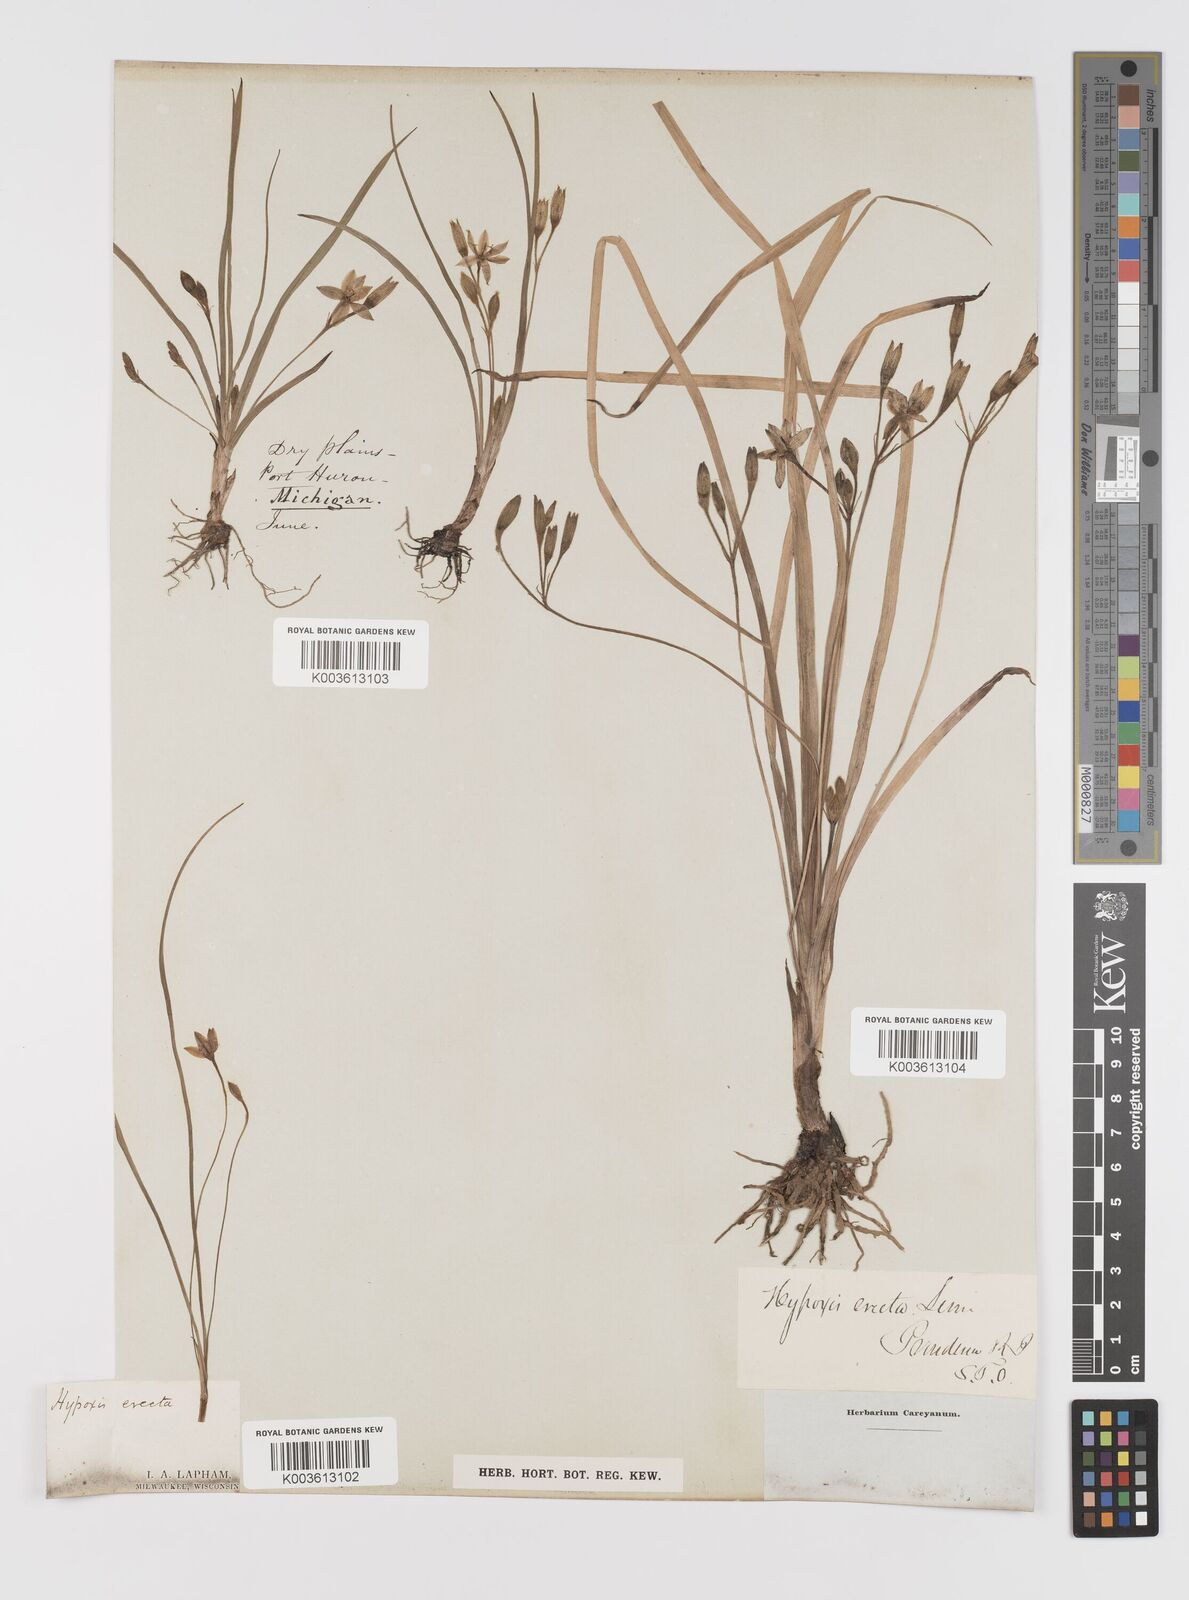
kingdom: Plantae
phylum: Tracheophyta
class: Liliopsida
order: Asparagales
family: Hypoxidaceae
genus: Hypoxis
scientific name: Hypoxis hirsuta
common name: Common goldstar
